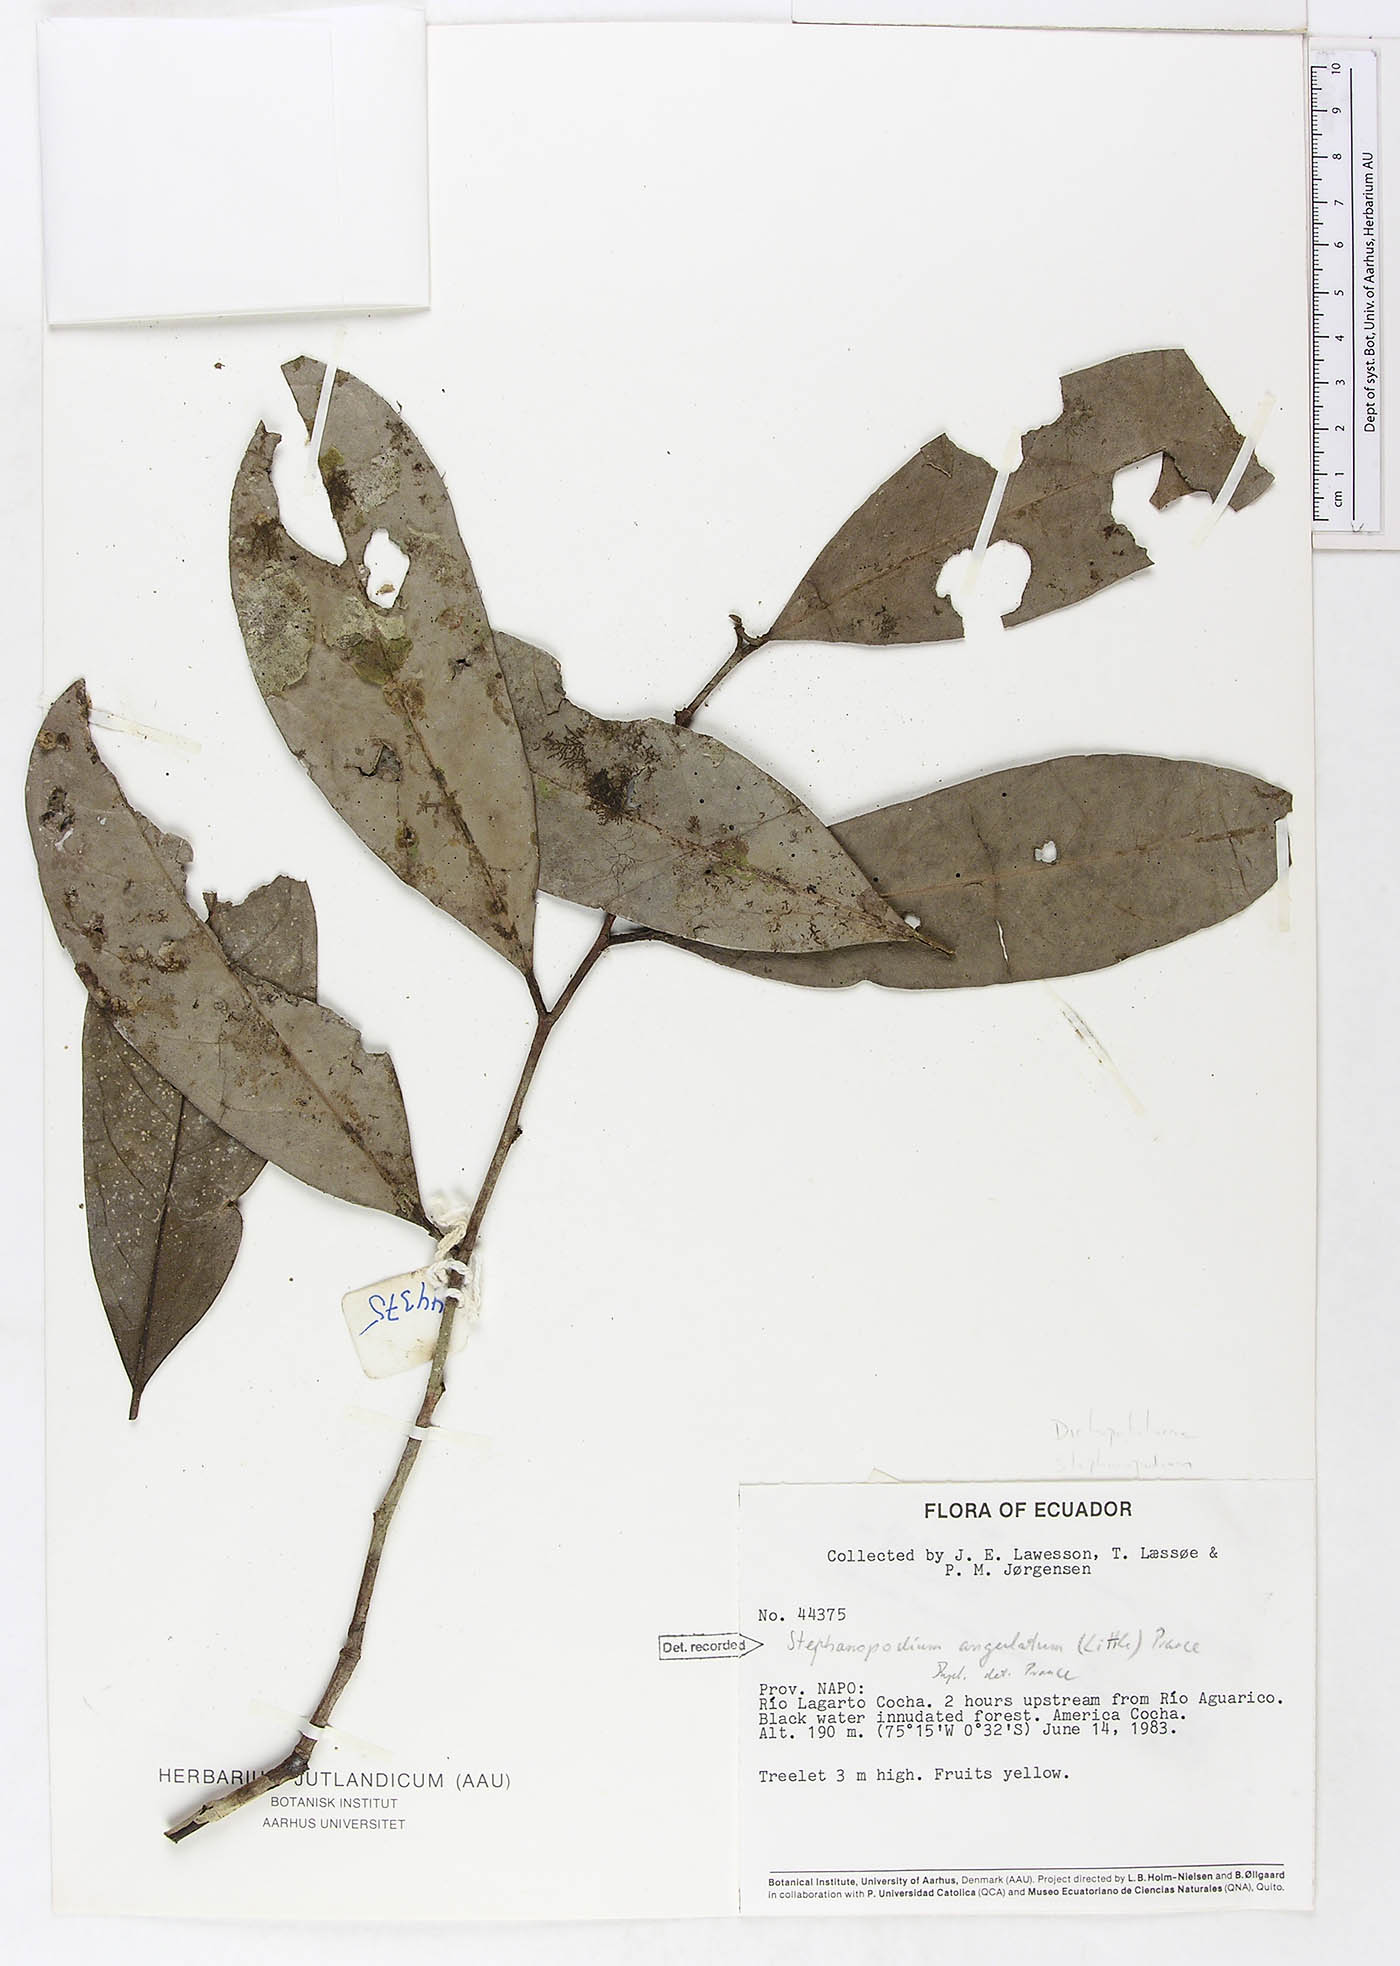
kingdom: Plantae
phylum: Tracheophyta
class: Magnoliopsida
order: Malpighiales
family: Dichapetalaceae
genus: Stephanopodium
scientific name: Stephanopodium angulatum
